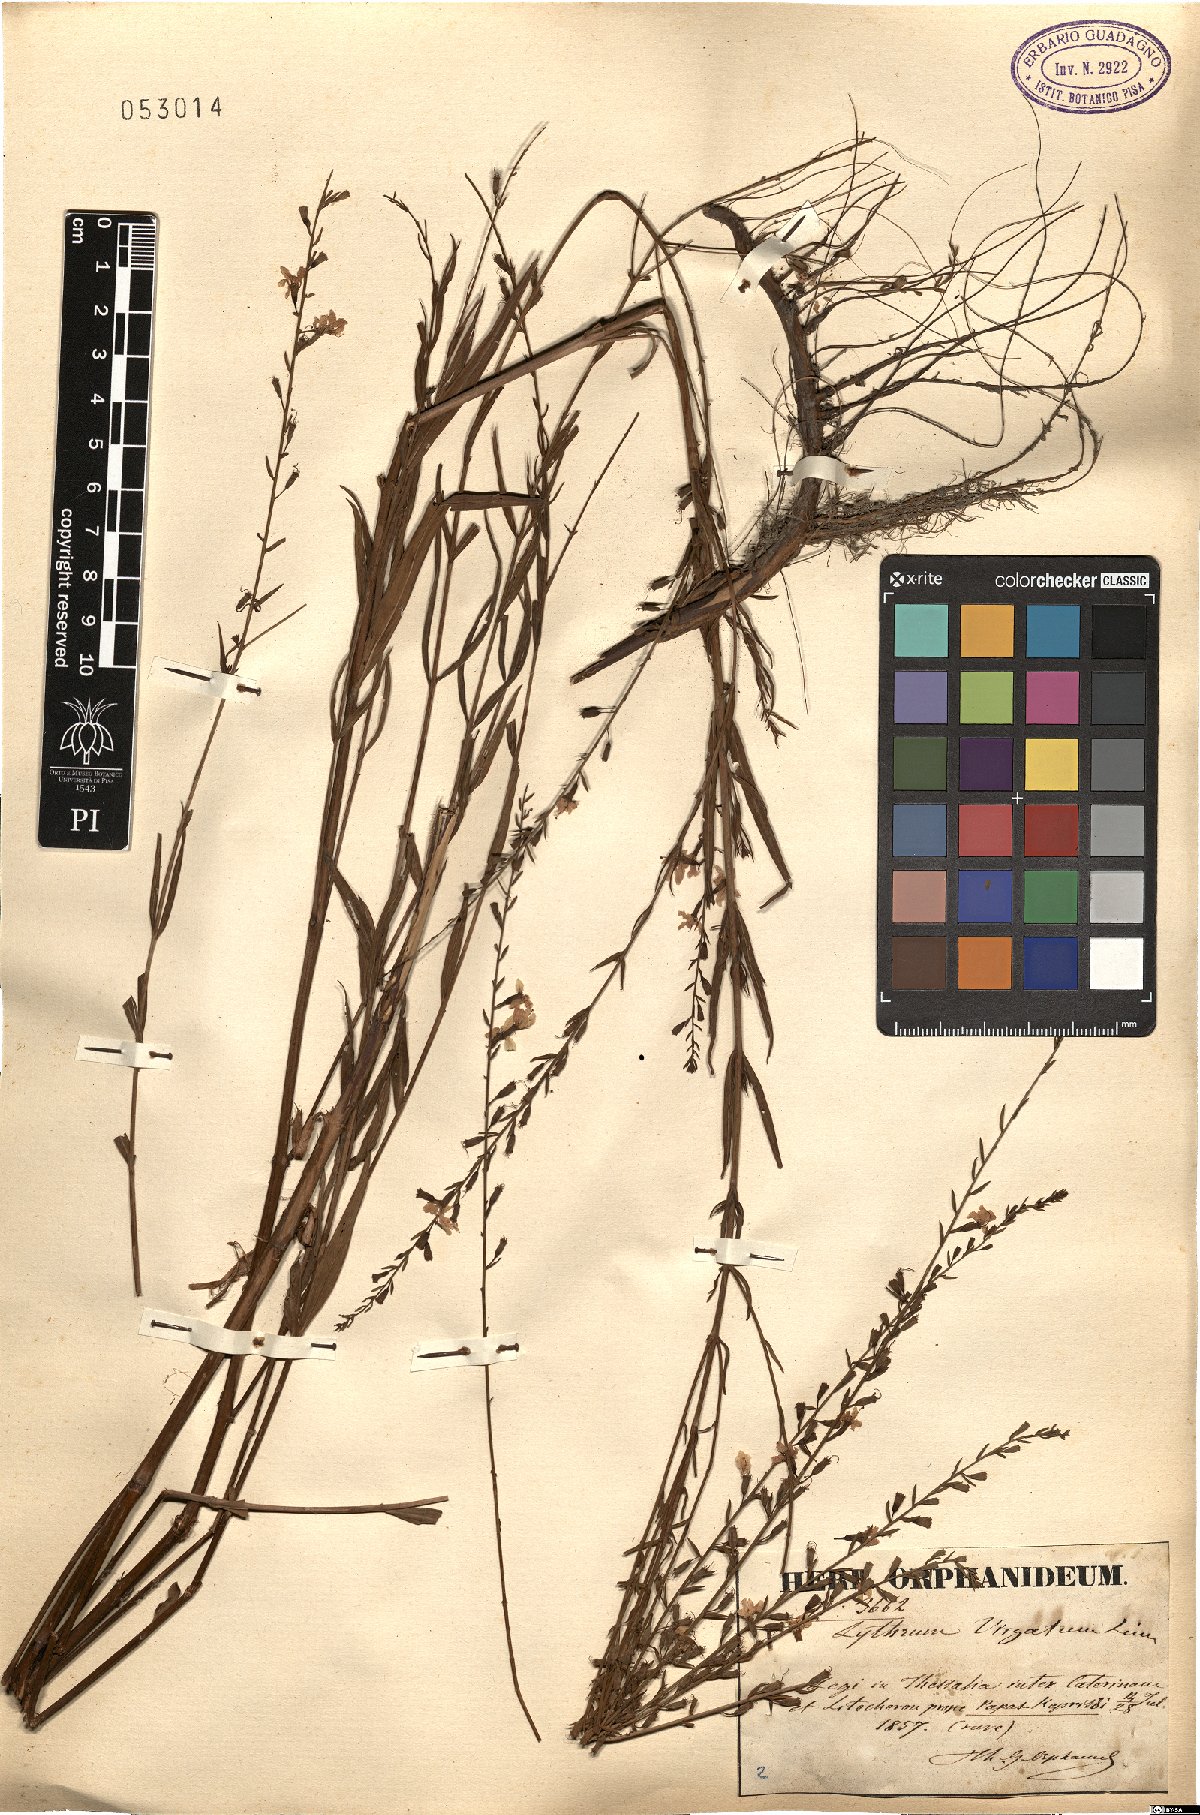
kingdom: Plantae
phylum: Tracheophyta
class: Magnoliopsida
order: Myrtales
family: Lythraceae
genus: Lythrum
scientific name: Lythrum virgatum
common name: European wand loosestrife
